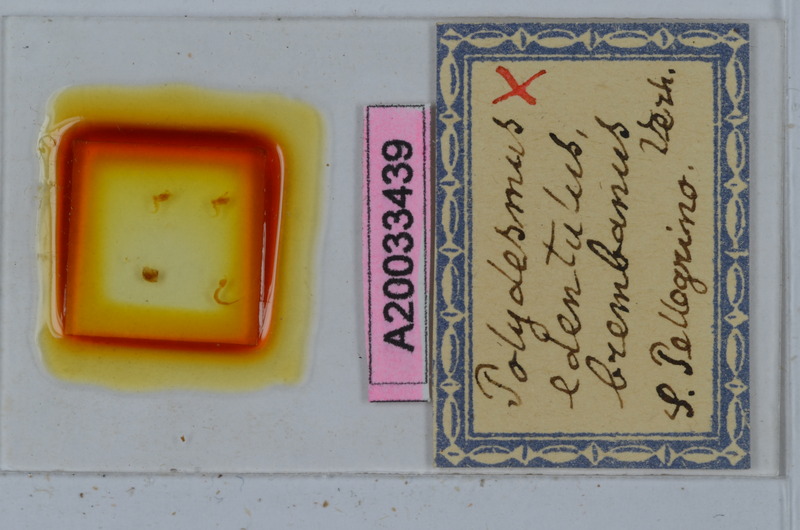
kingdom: Animalia
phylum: Arthropoda
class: Diplopoda
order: Polydesmida
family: Polydesmidae
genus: Polydesmus
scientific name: Polydesmus edentulus
